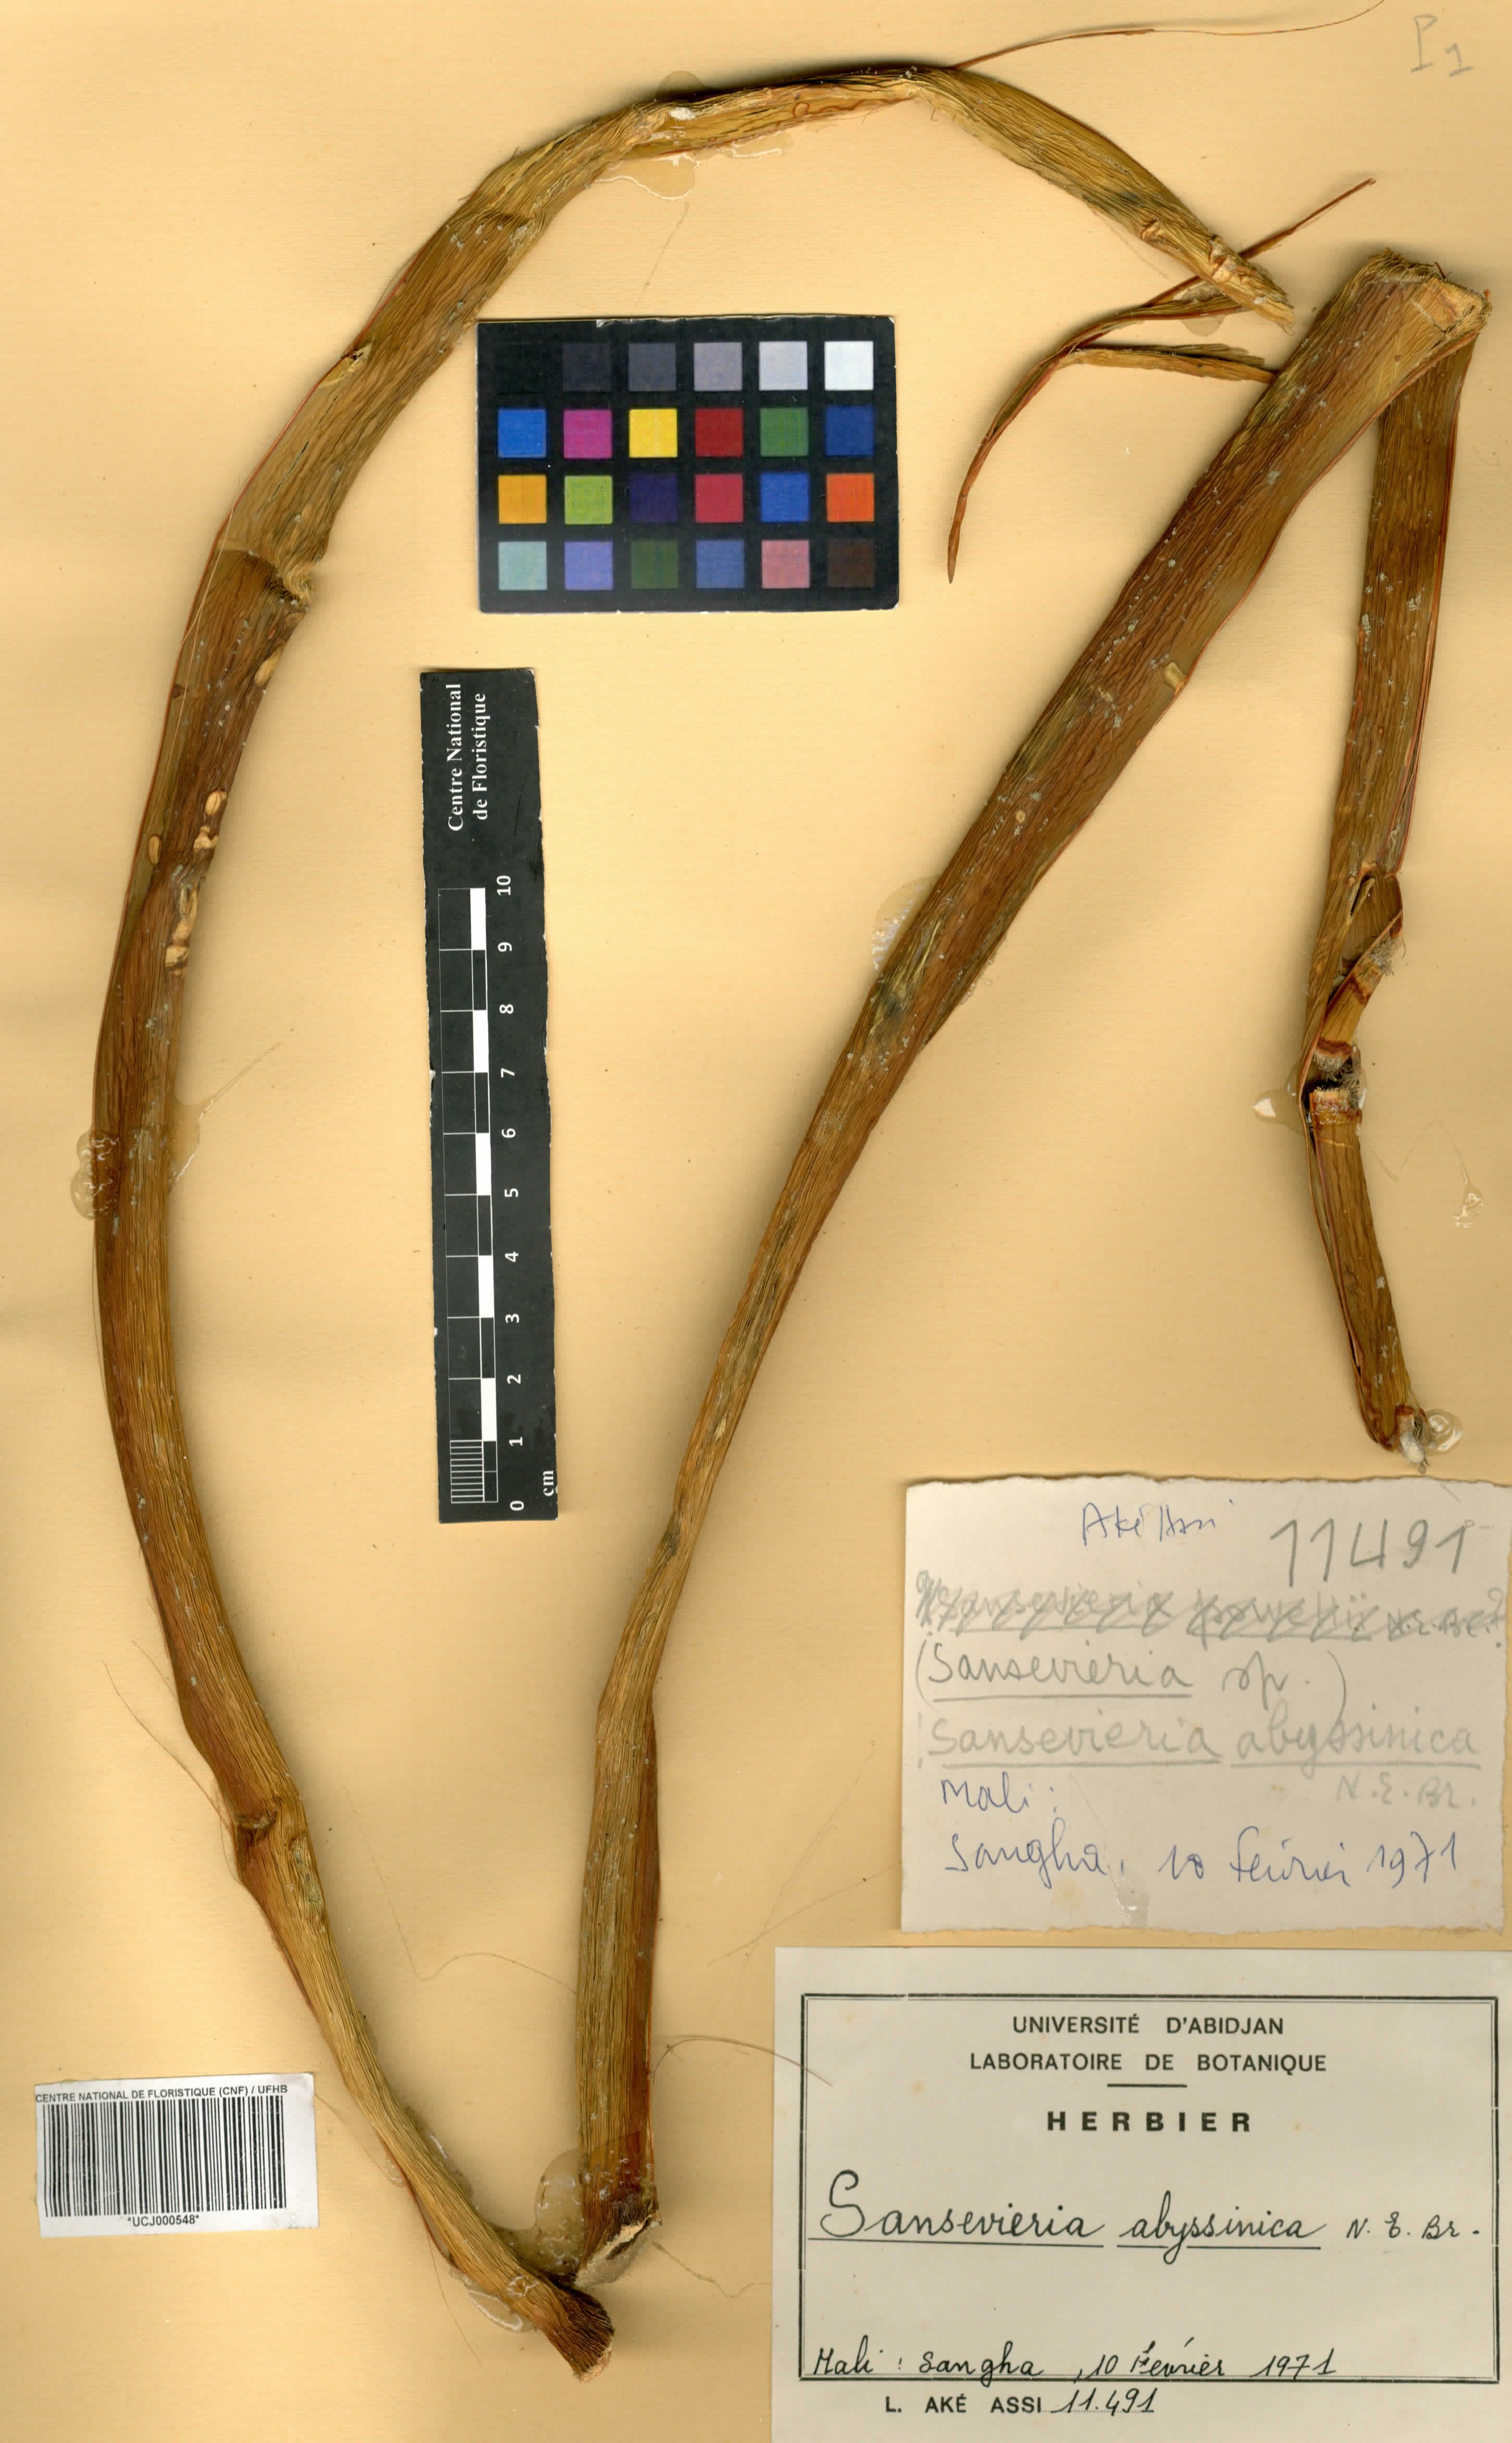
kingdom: Plantae
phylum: Tracheophyta
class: Liliopsida
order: Asparagales
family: Asparagaceae
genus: Dracaena
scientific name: Dracaena forskaliana
